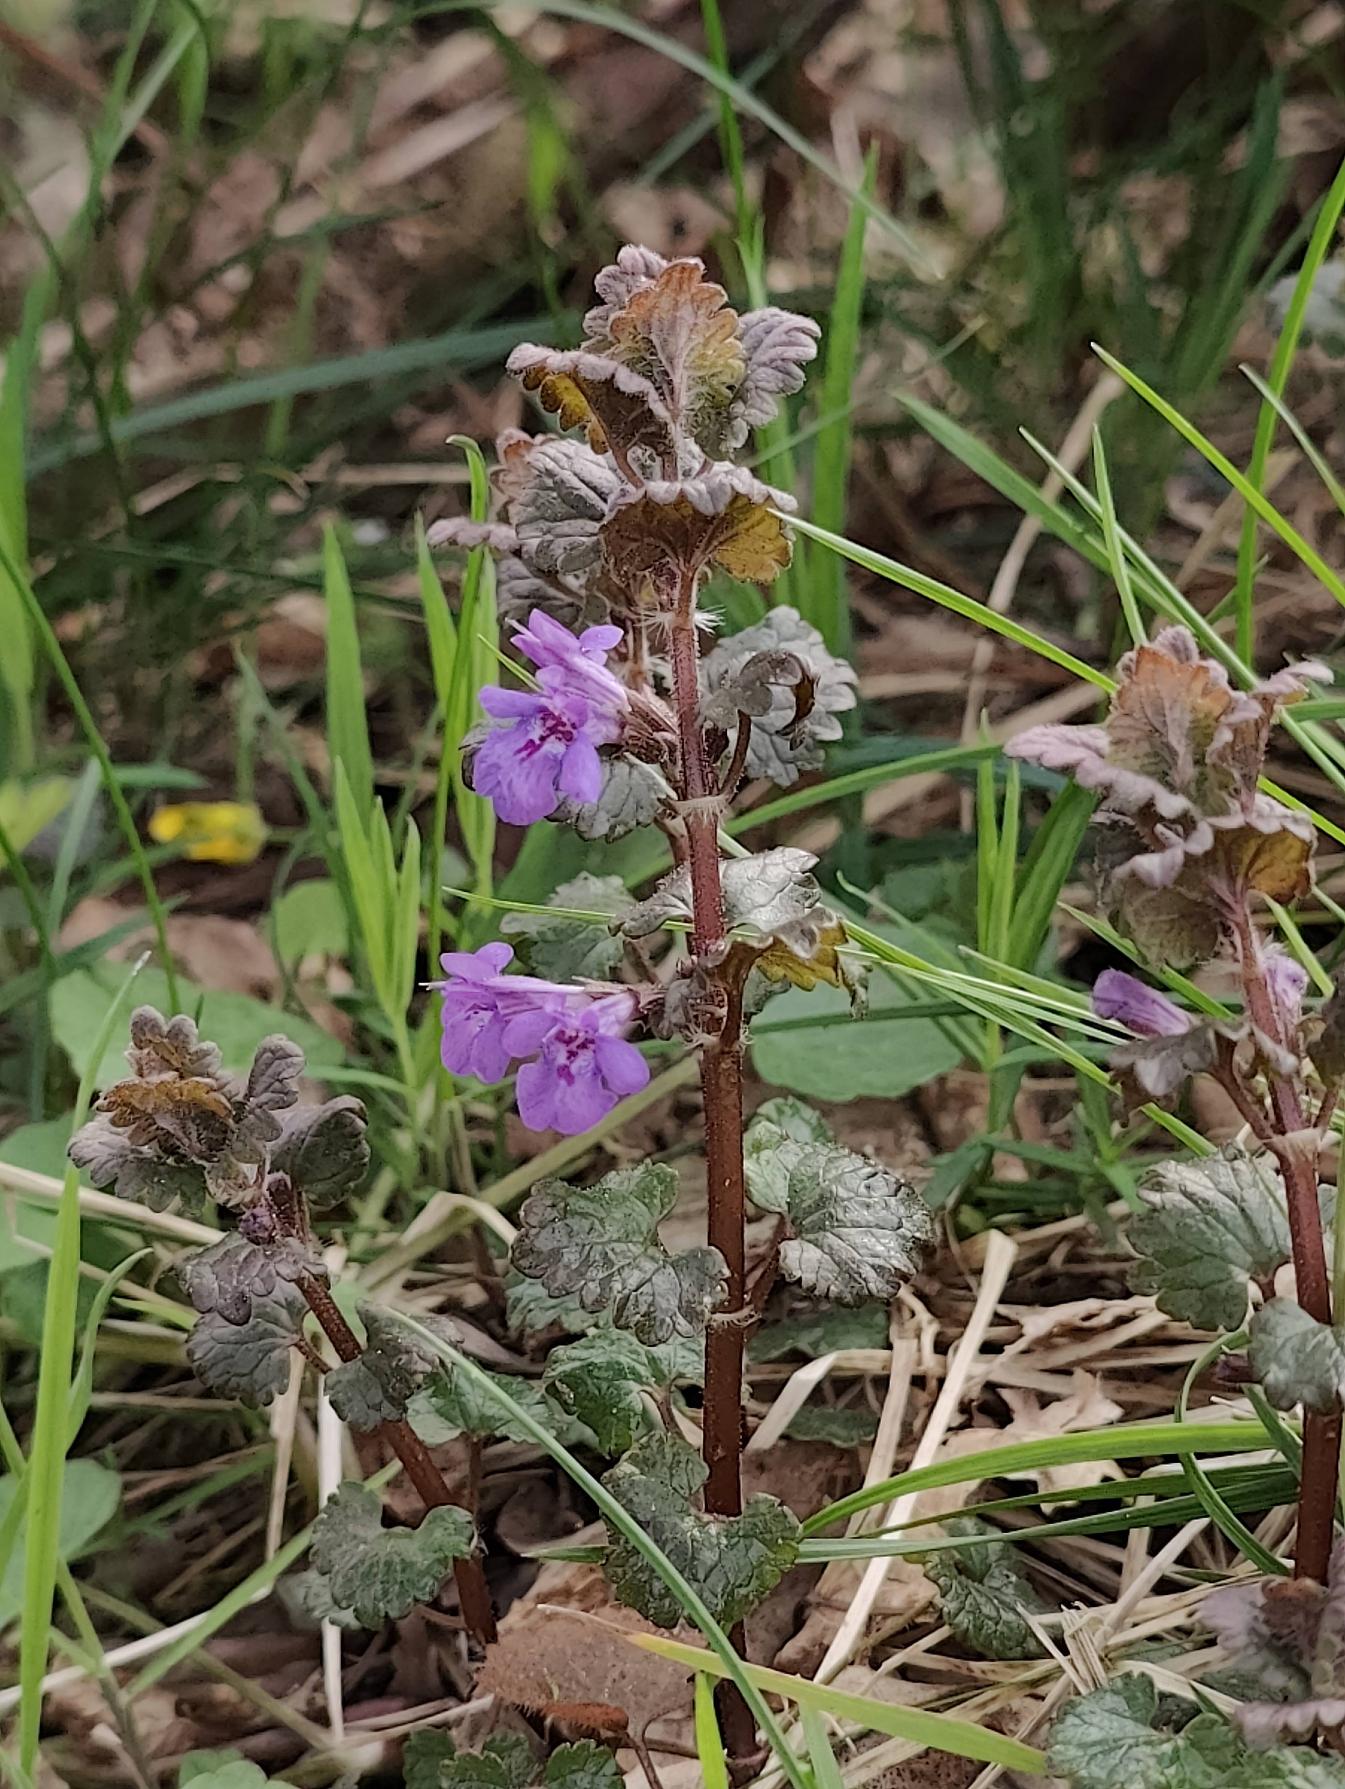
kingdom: Plantae
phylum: Tracheophyta
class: Magnoliopsida
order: Lamiales
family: Lamiaceae
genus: Glechoma
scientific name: Glechoma hederacea
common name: Korsknap
